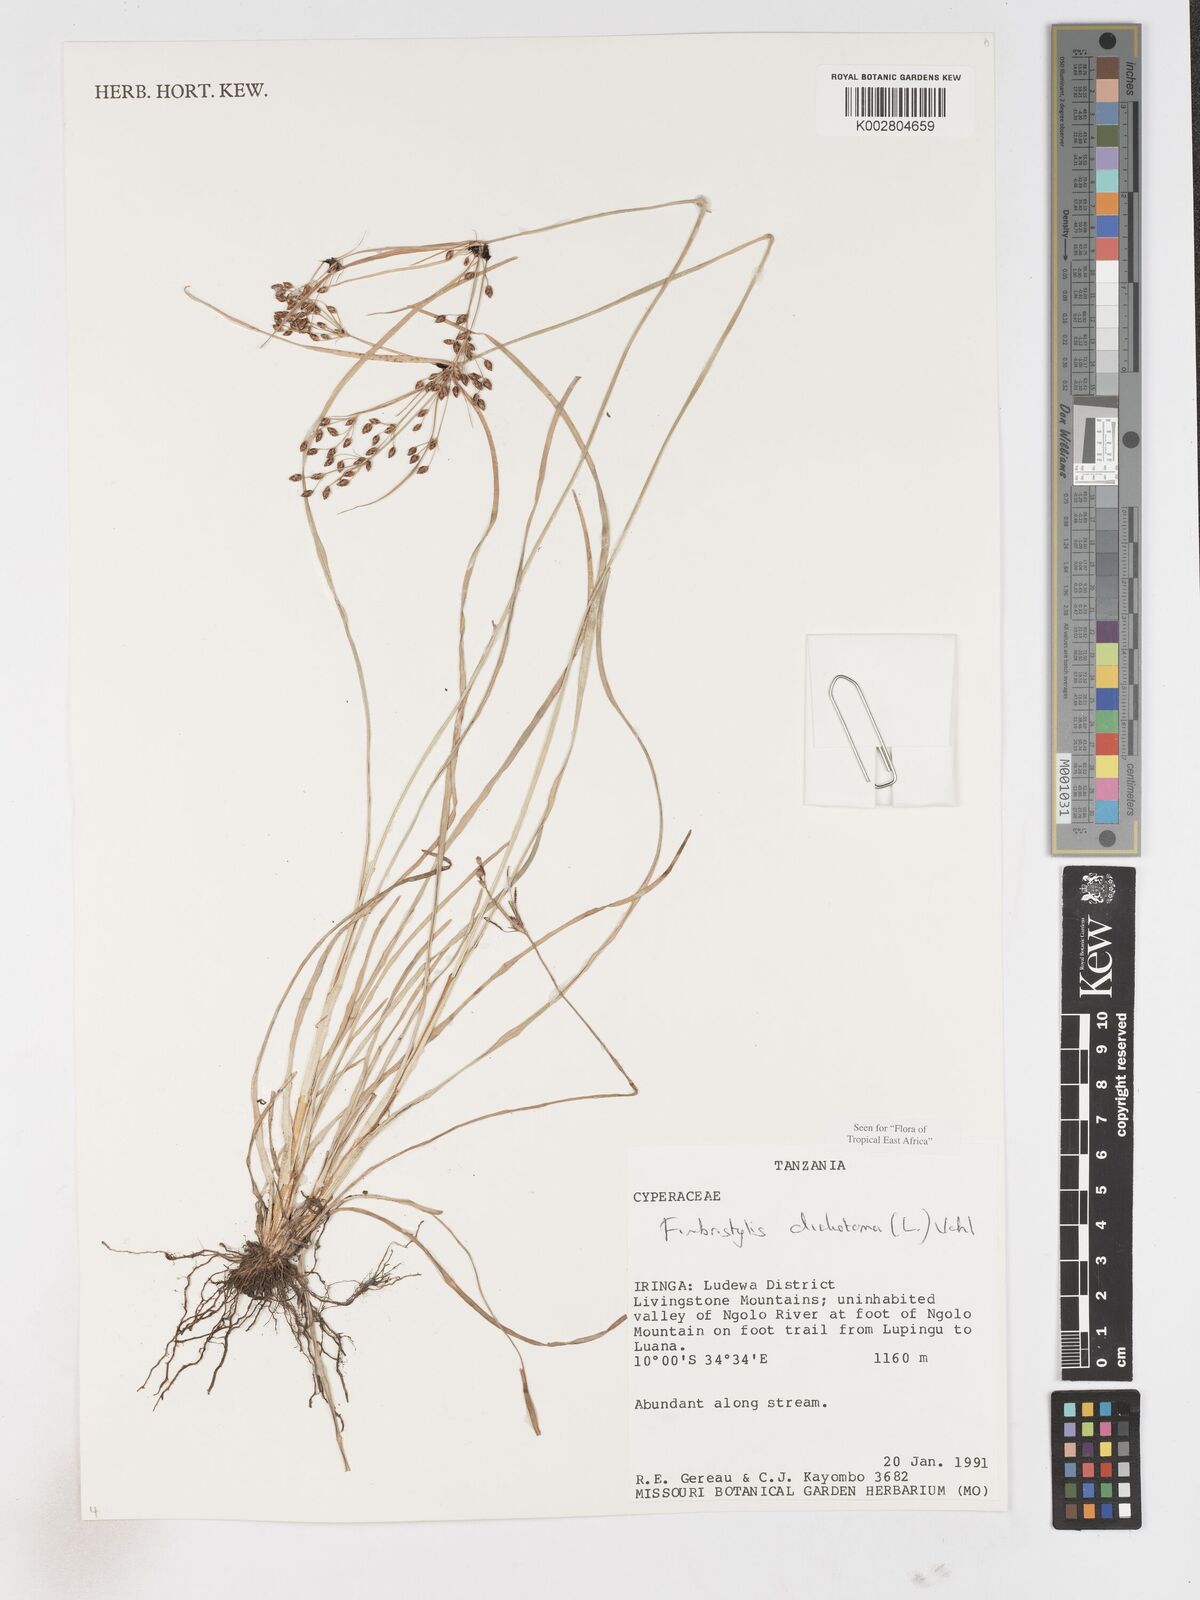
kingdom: Plantae
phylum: Tracheophyta
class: Liliopsida
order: Poales
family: Cyperaceae
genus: Fimbristylis
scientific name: Fimbristylis dichotoma
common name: Forked fimbry
